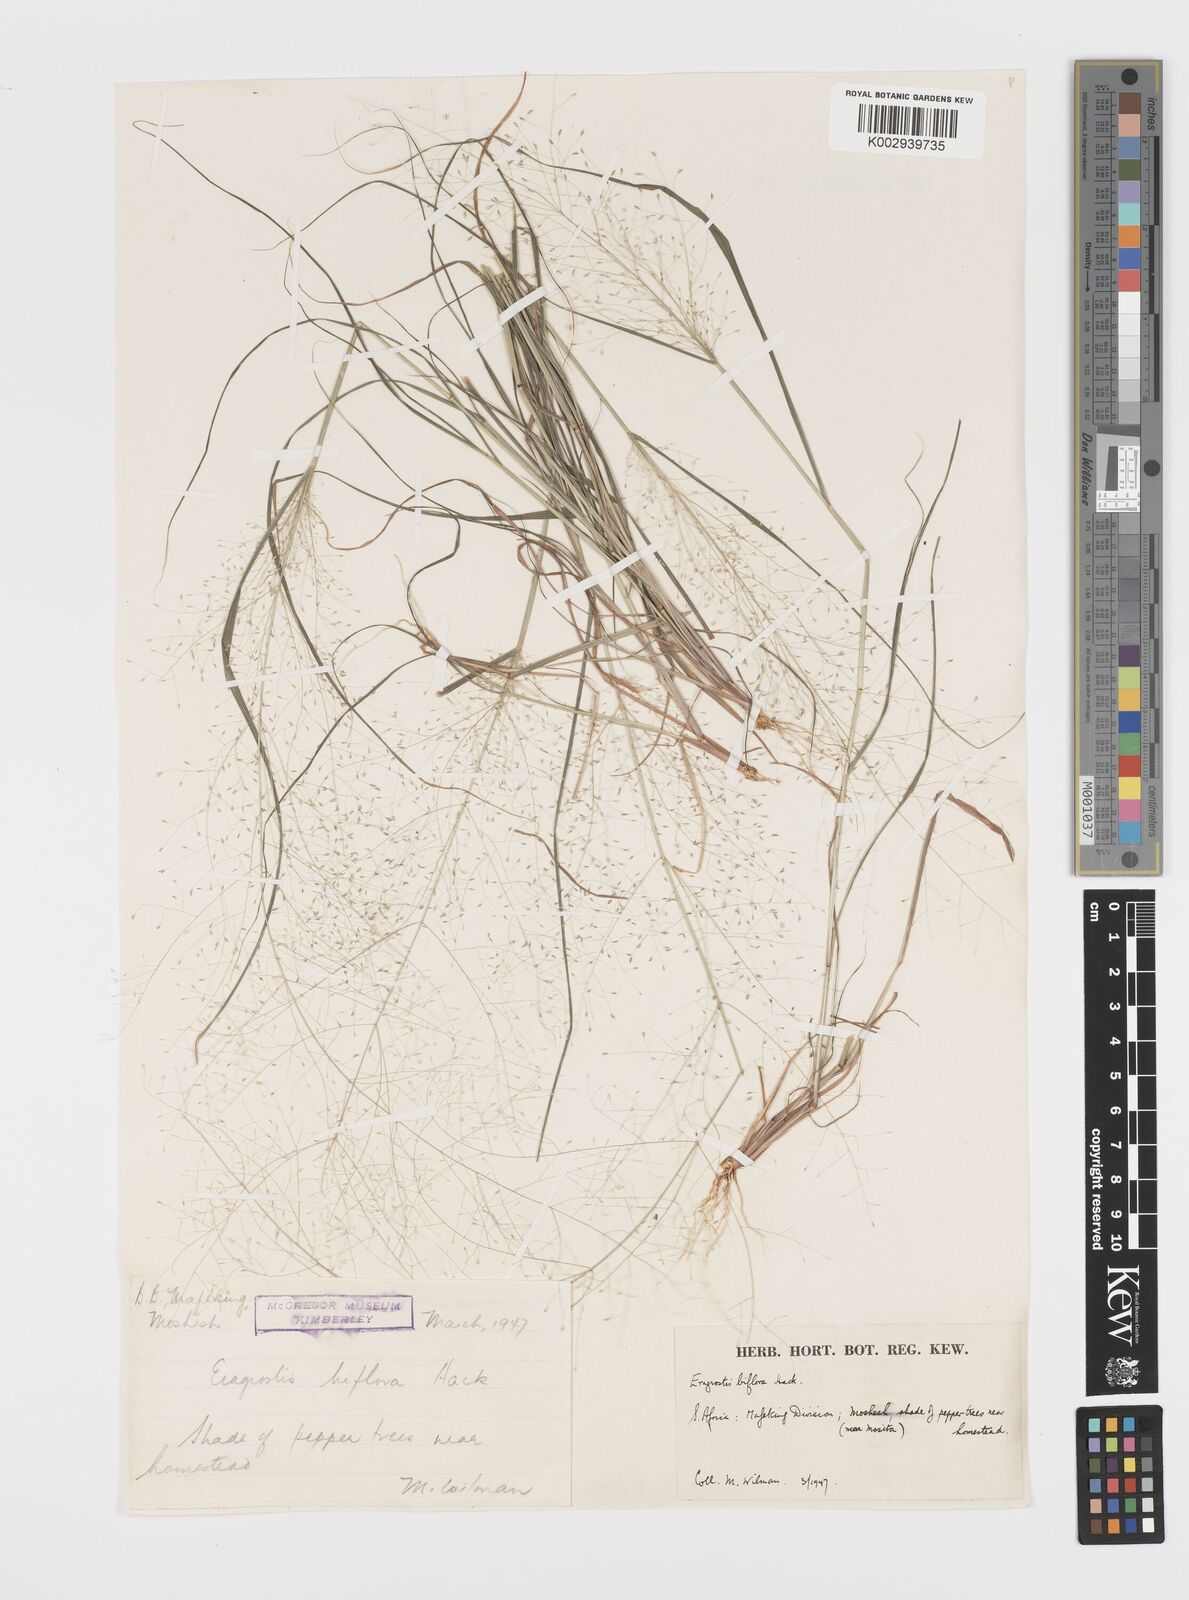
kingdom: Plantae
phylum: Tracheophyta
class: Liliopsida
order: Poales
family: Poaceae
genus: Eragrostis
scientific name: Eragrostis biflora
